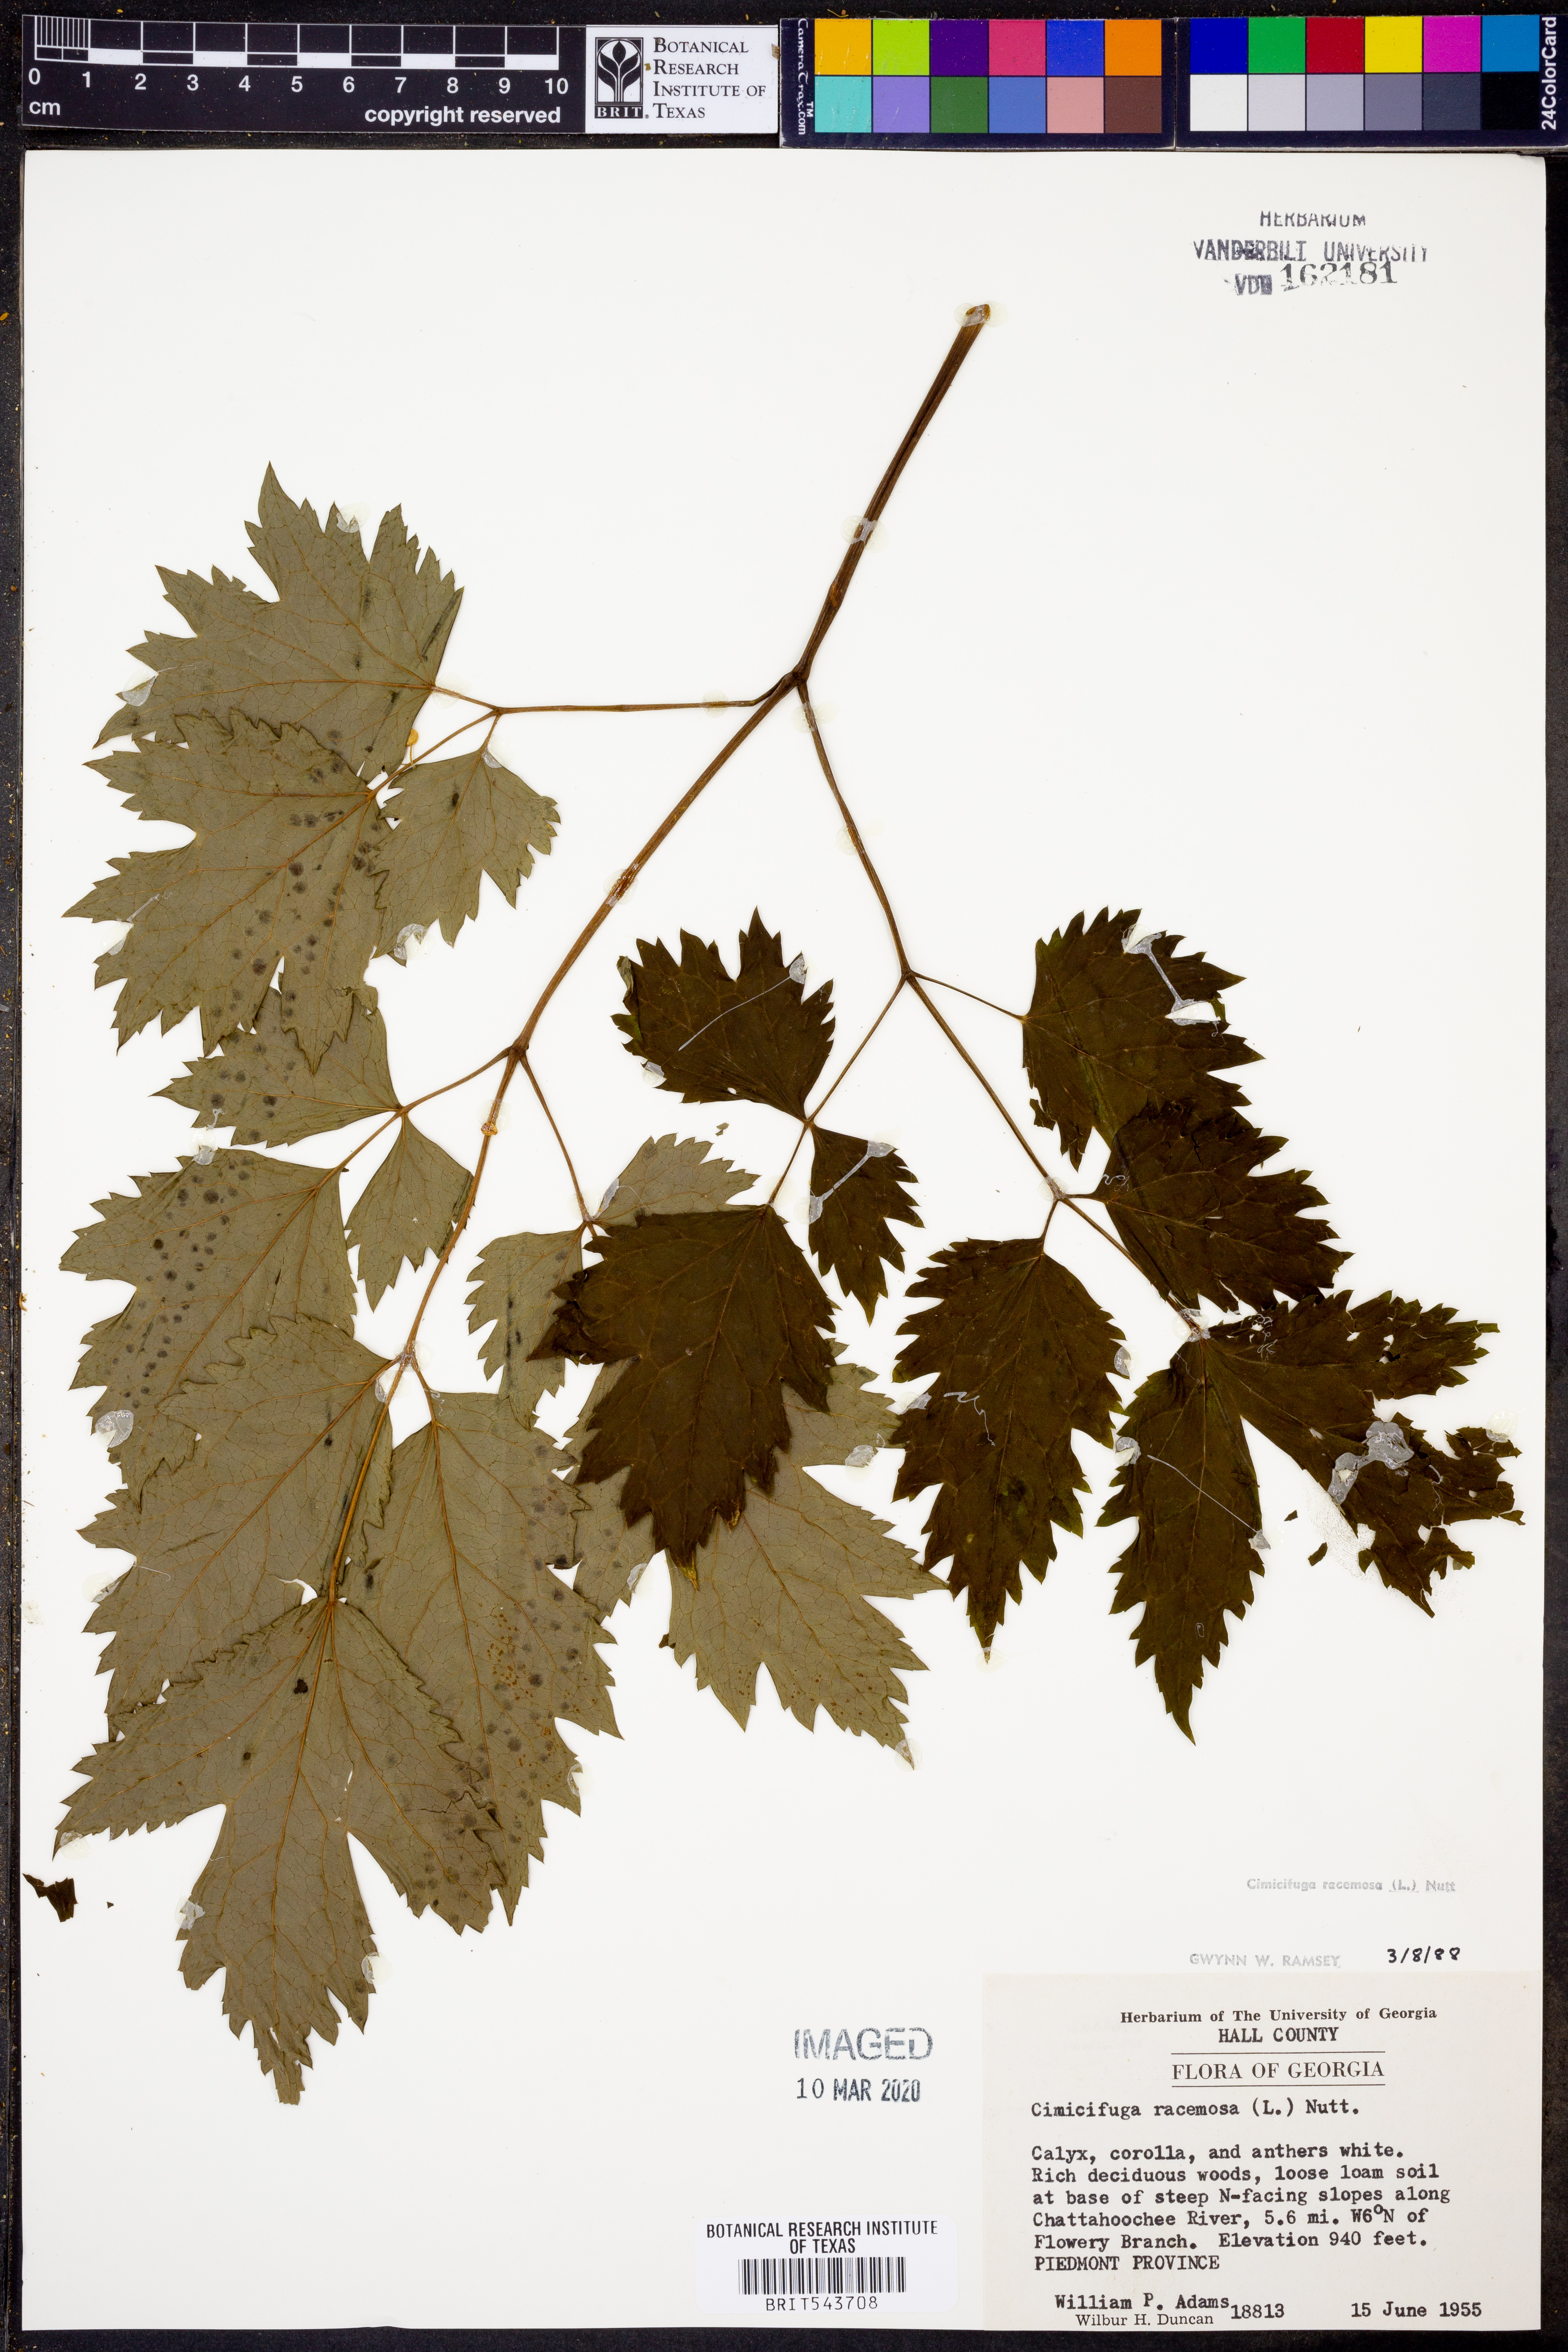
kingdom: Plantae
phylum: Tracheophyta
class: Magnoliopsida
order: Ranunculales
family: Ranunculaceae
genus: Actaea
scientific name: Actaea racemosa
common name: Black cohosh
